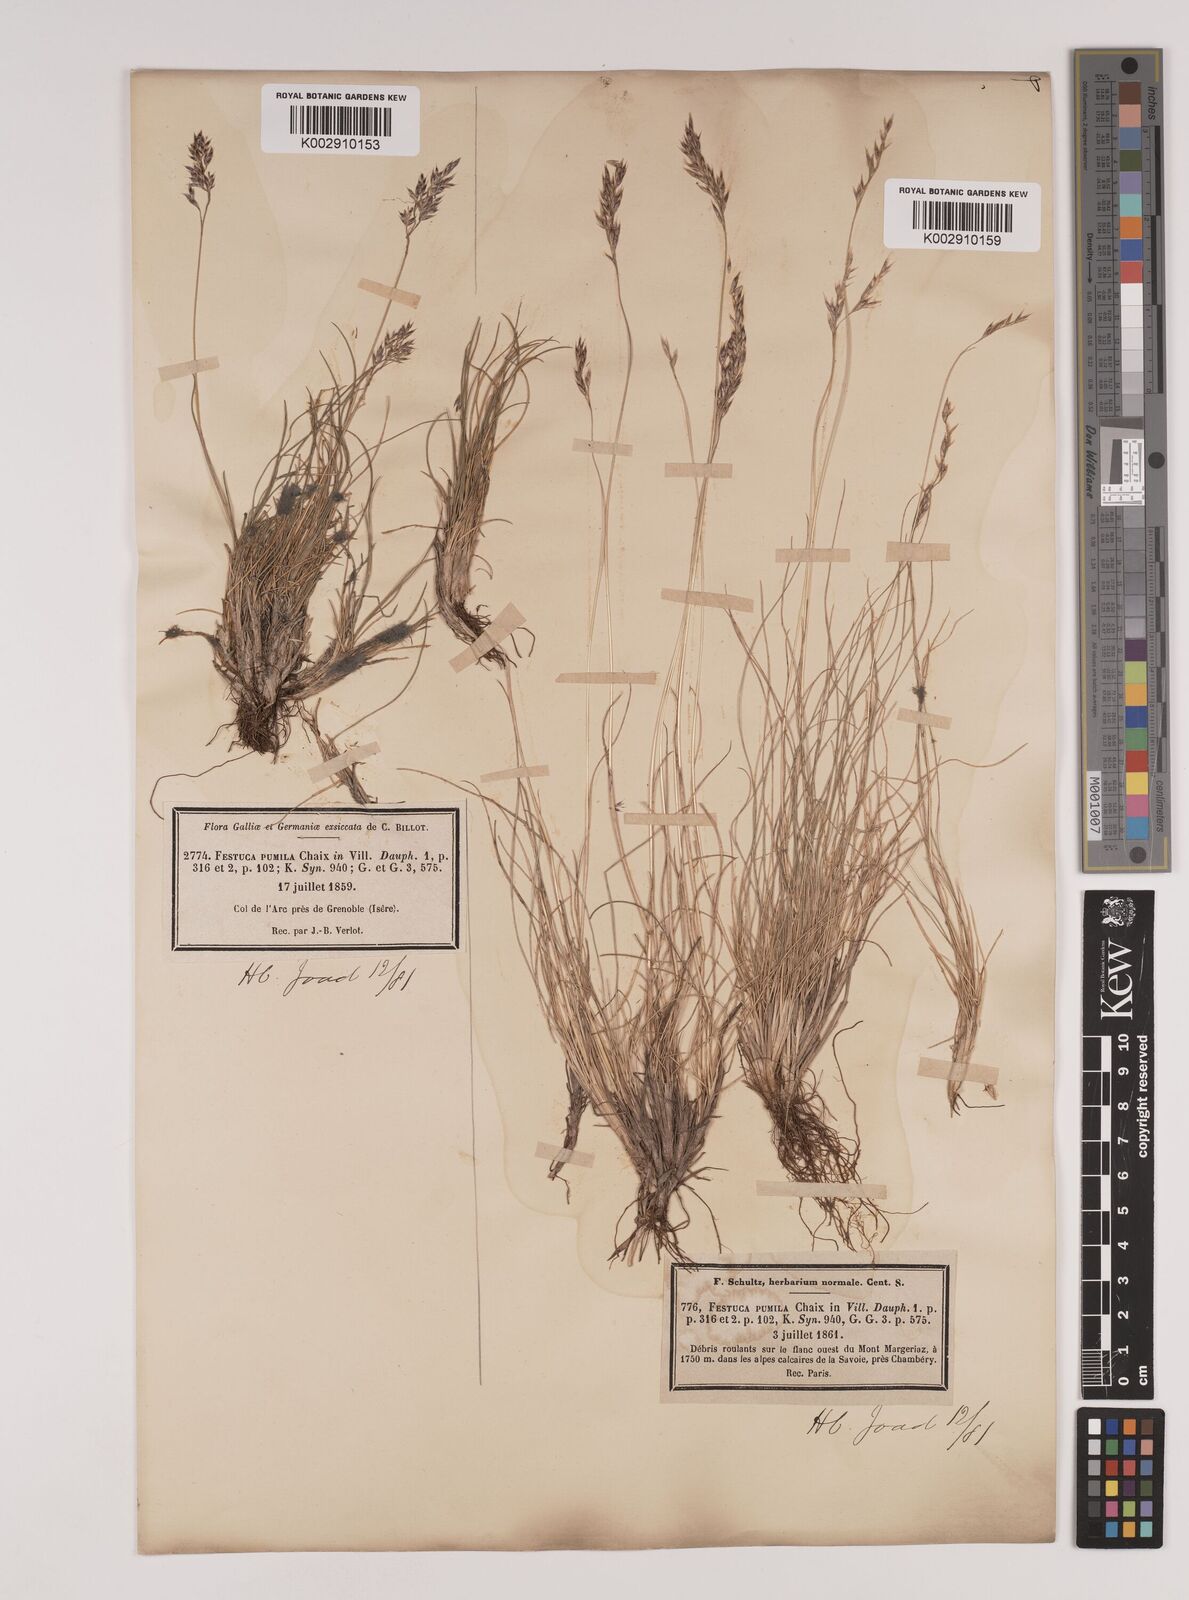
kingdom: Plantae
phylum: Tracheophyta
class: Liliopsida
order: Poales
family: Poaceae
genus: Festuca
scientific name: Festuca
